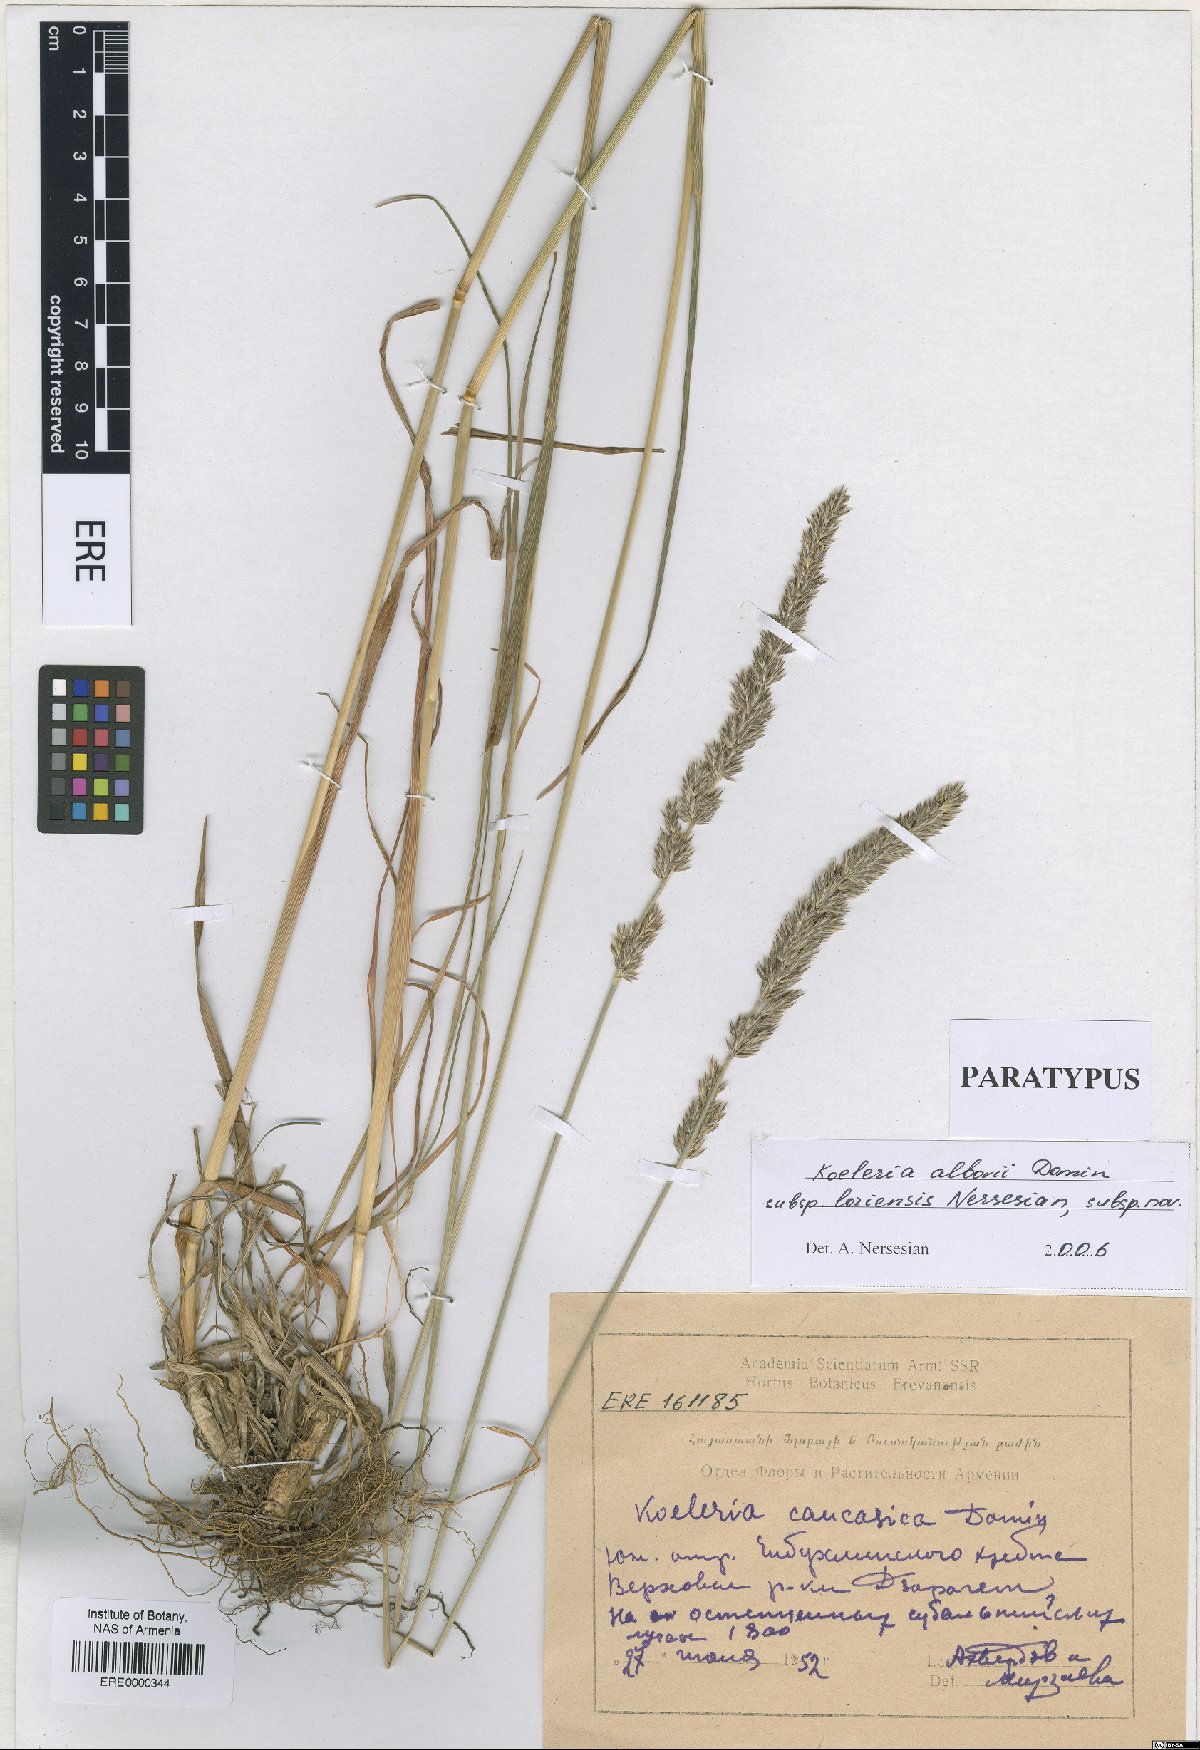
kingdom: Plantae
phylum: Tracheophyta
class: Liliopsida
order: Poales
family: Poaceae
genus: Koeleria
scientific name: Koeleria eriostachya
